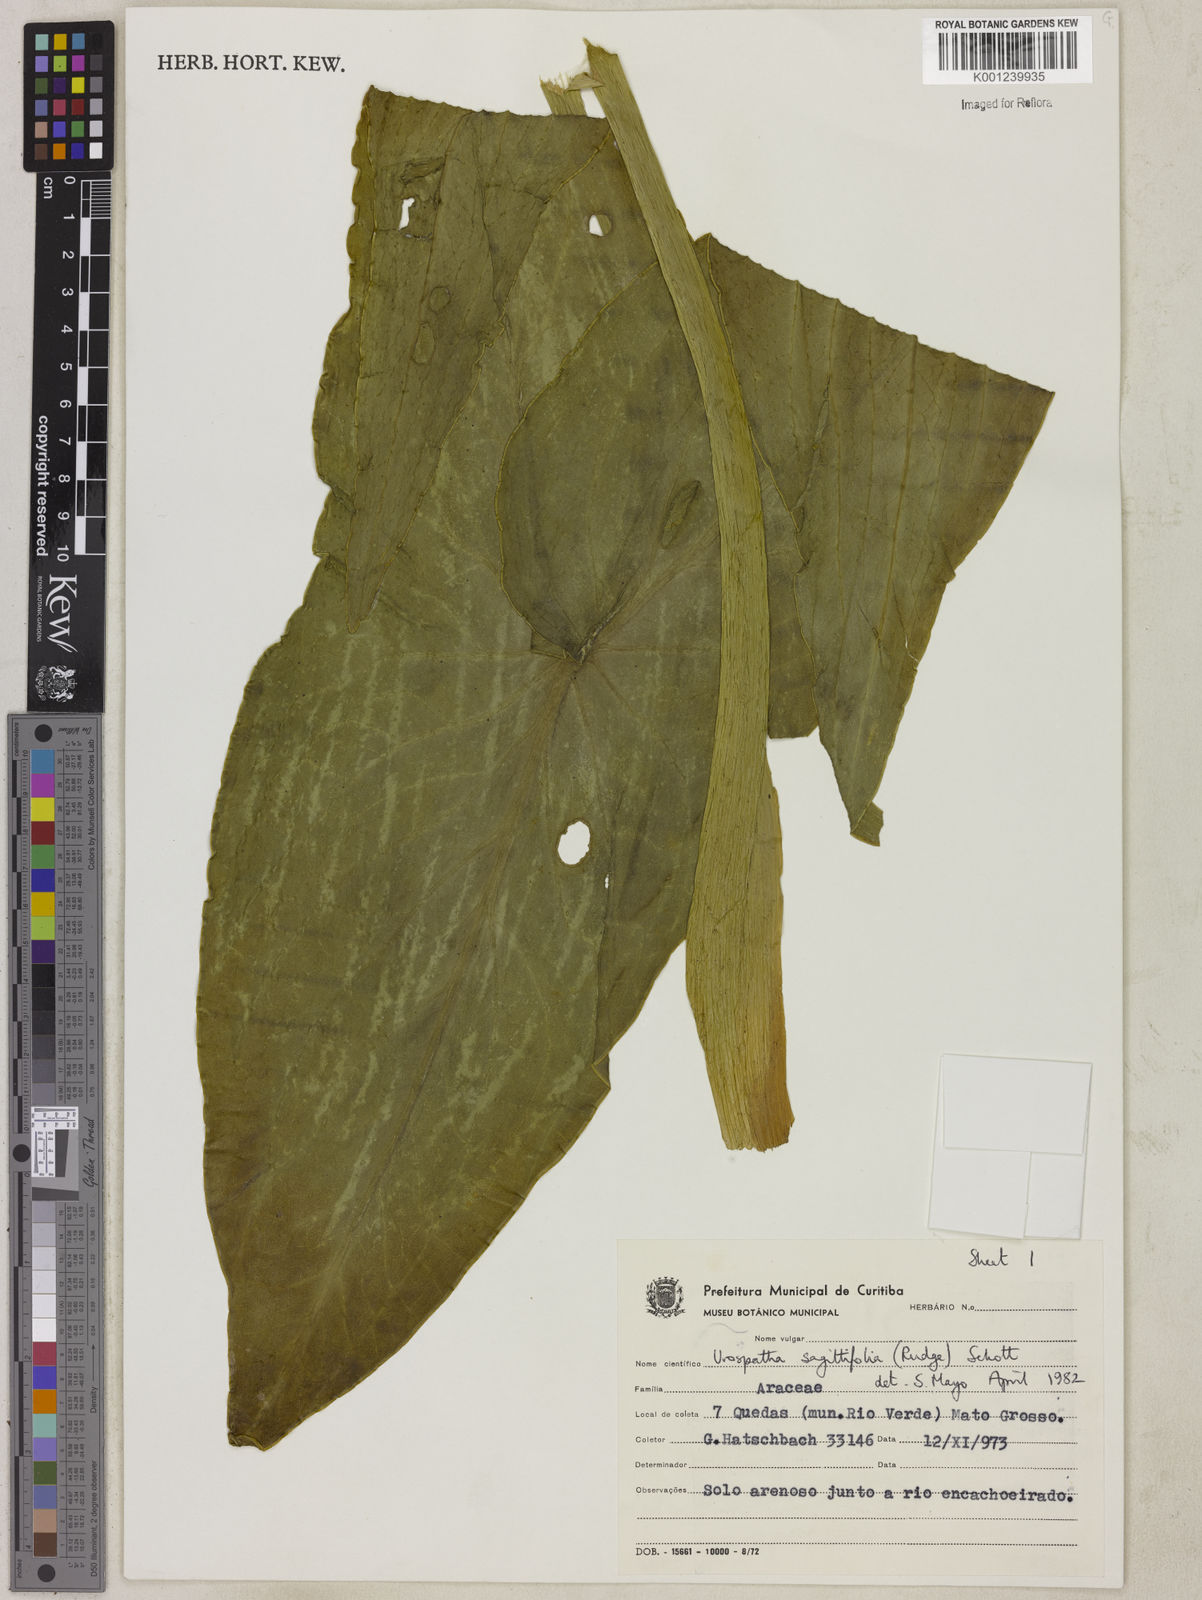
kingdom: Plantae
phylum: Tracheophyta
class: Liliopsida
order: Alismatales
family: Araceae
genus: Urospatha
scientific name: Urospatha sagittifolia
